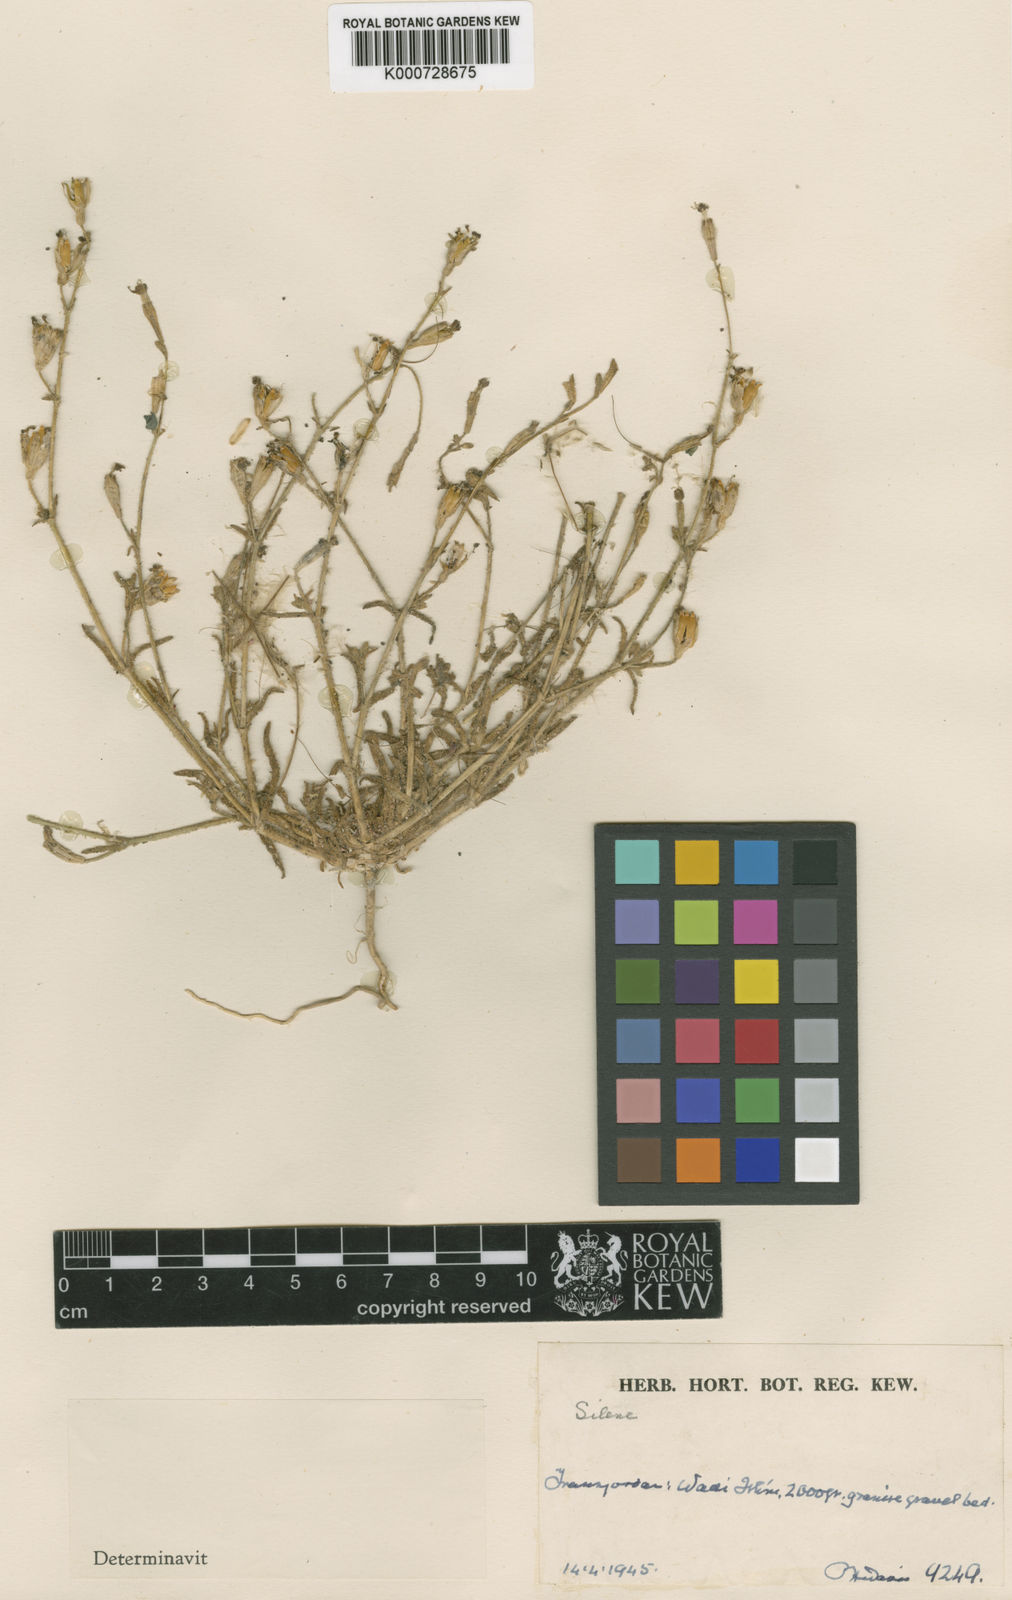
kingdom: Plantae
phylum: Tracheophyta
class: Magnoliopsida
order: Caryophyllales
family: Caryophyllaceae
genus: Silene
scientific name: Silene moabitica
